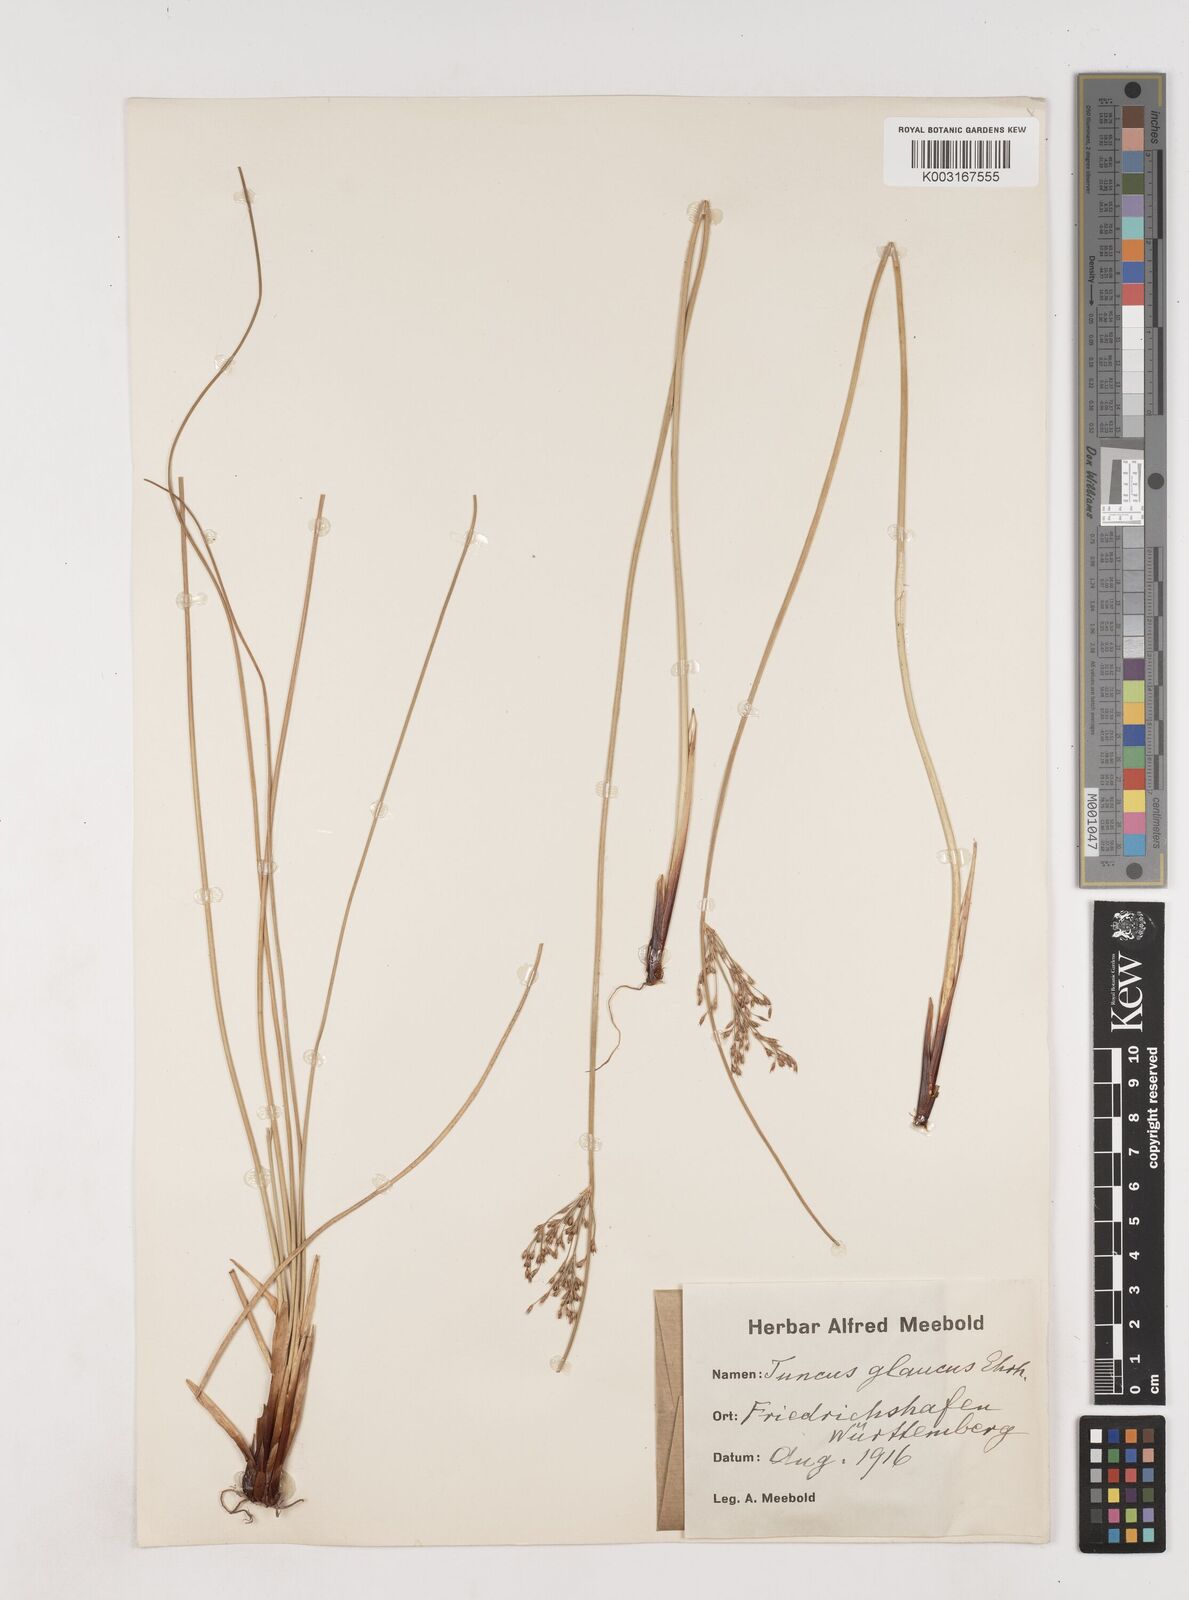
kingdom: Plantae
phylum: Tracheophyta
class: Liliopsida
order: Poales
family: Juncaceae
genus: Juncus
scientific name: Juncus inflexus
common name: Hard rush
